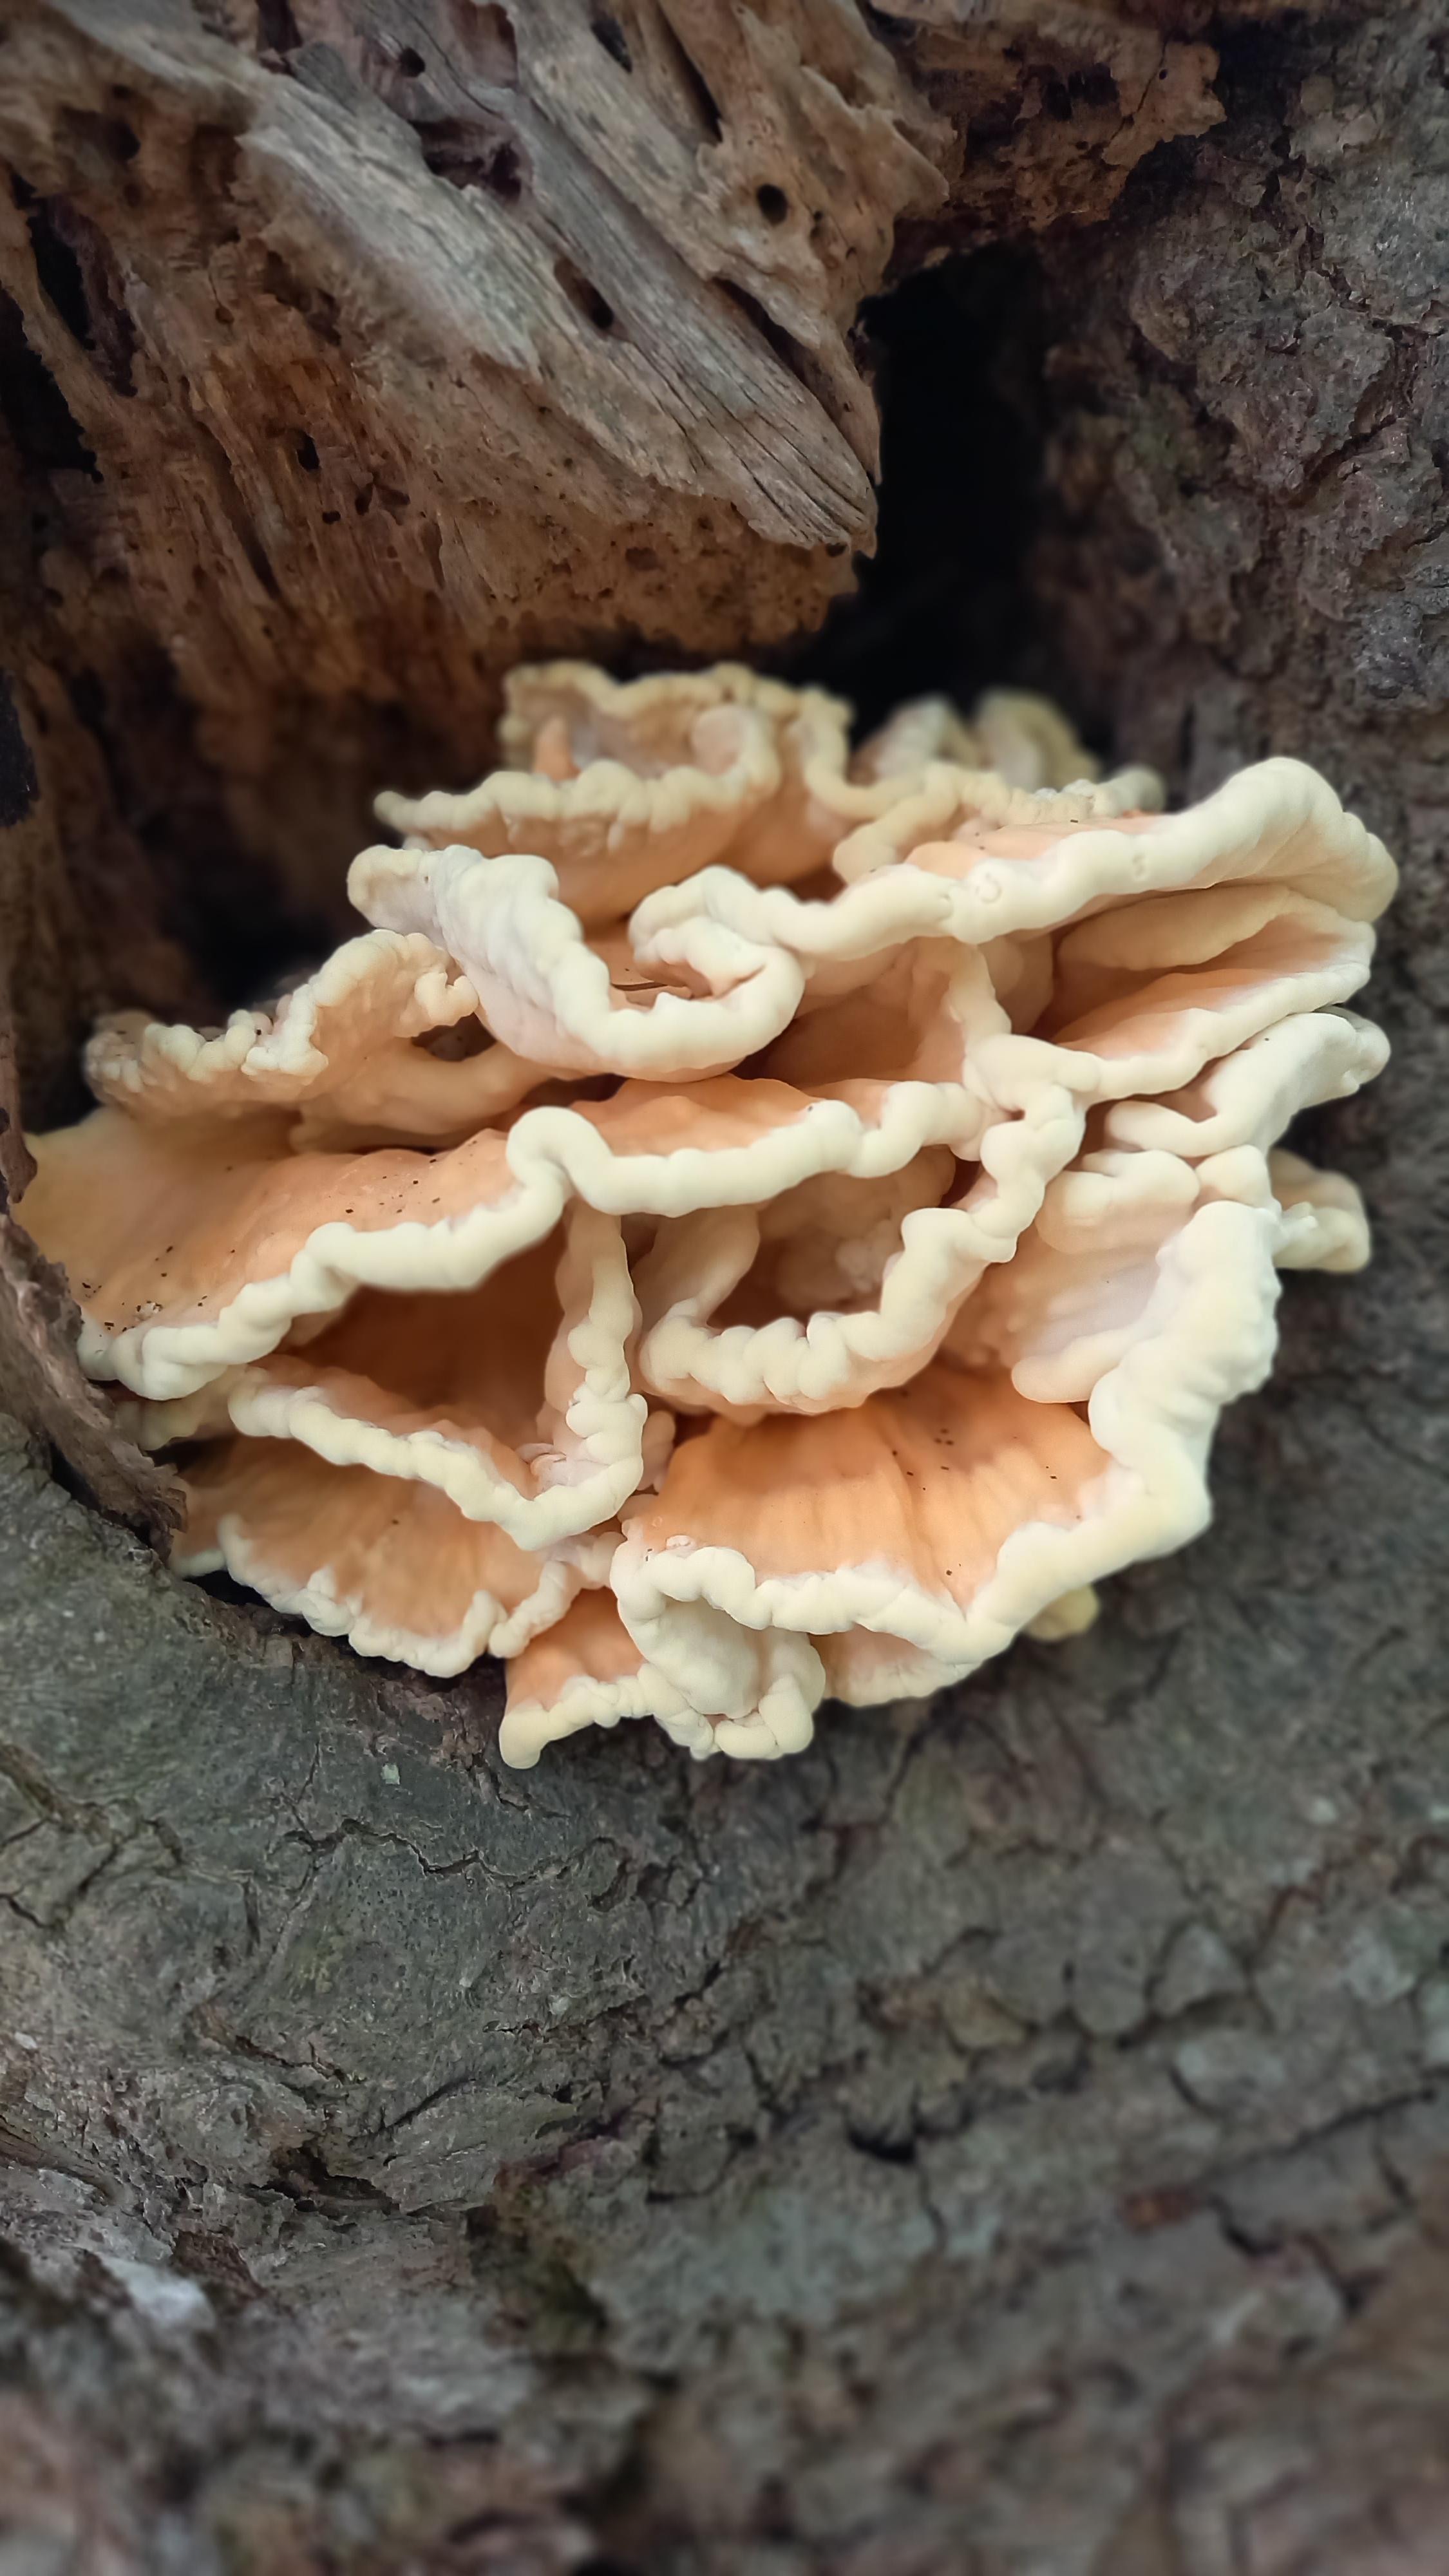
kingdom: Fungi
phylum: Basidiomycota
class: Agaricomycetes
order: Polyporales
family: Laetiporaceae
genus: Laetiporus
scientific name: Laetiporus sulphureus
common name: svovlporesvamp
